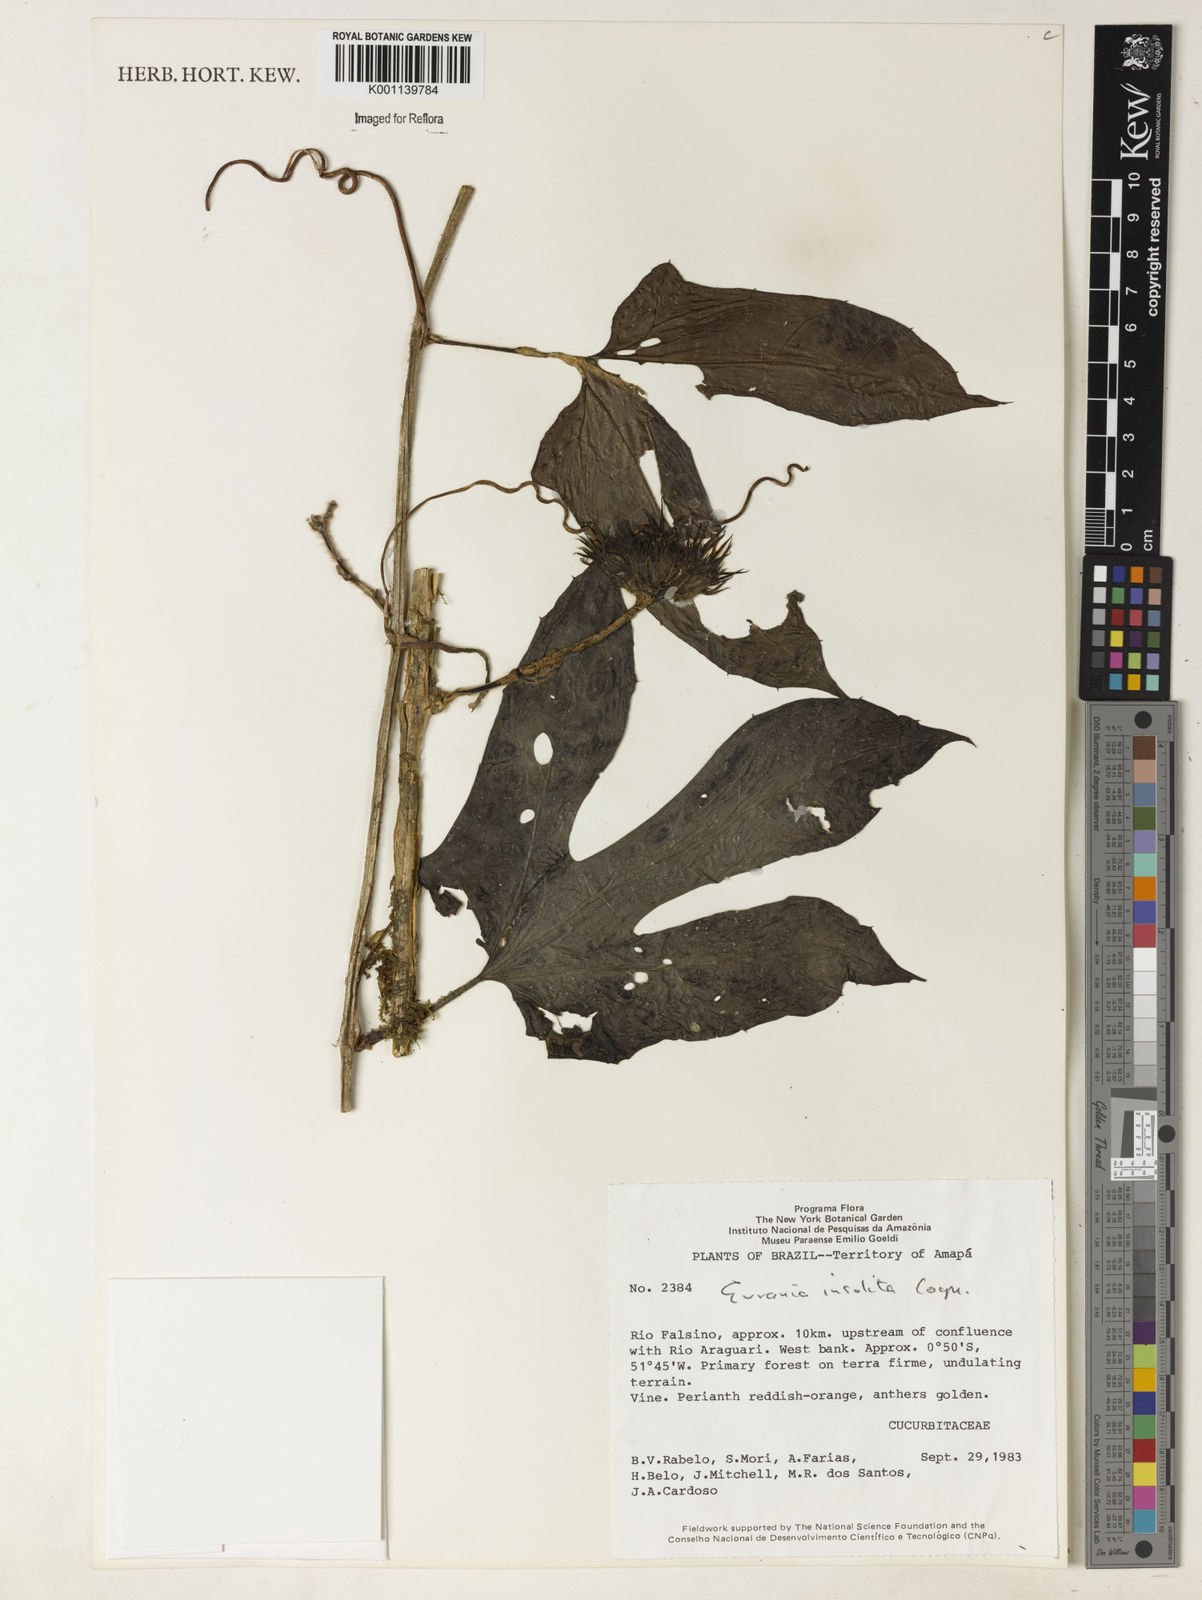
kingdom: Plantae
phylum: Tracheophyta
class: Magnoliopsida
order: Cucurbitales
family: Cucurbitaceae
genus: Gurania
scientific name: Gurania sinuata
